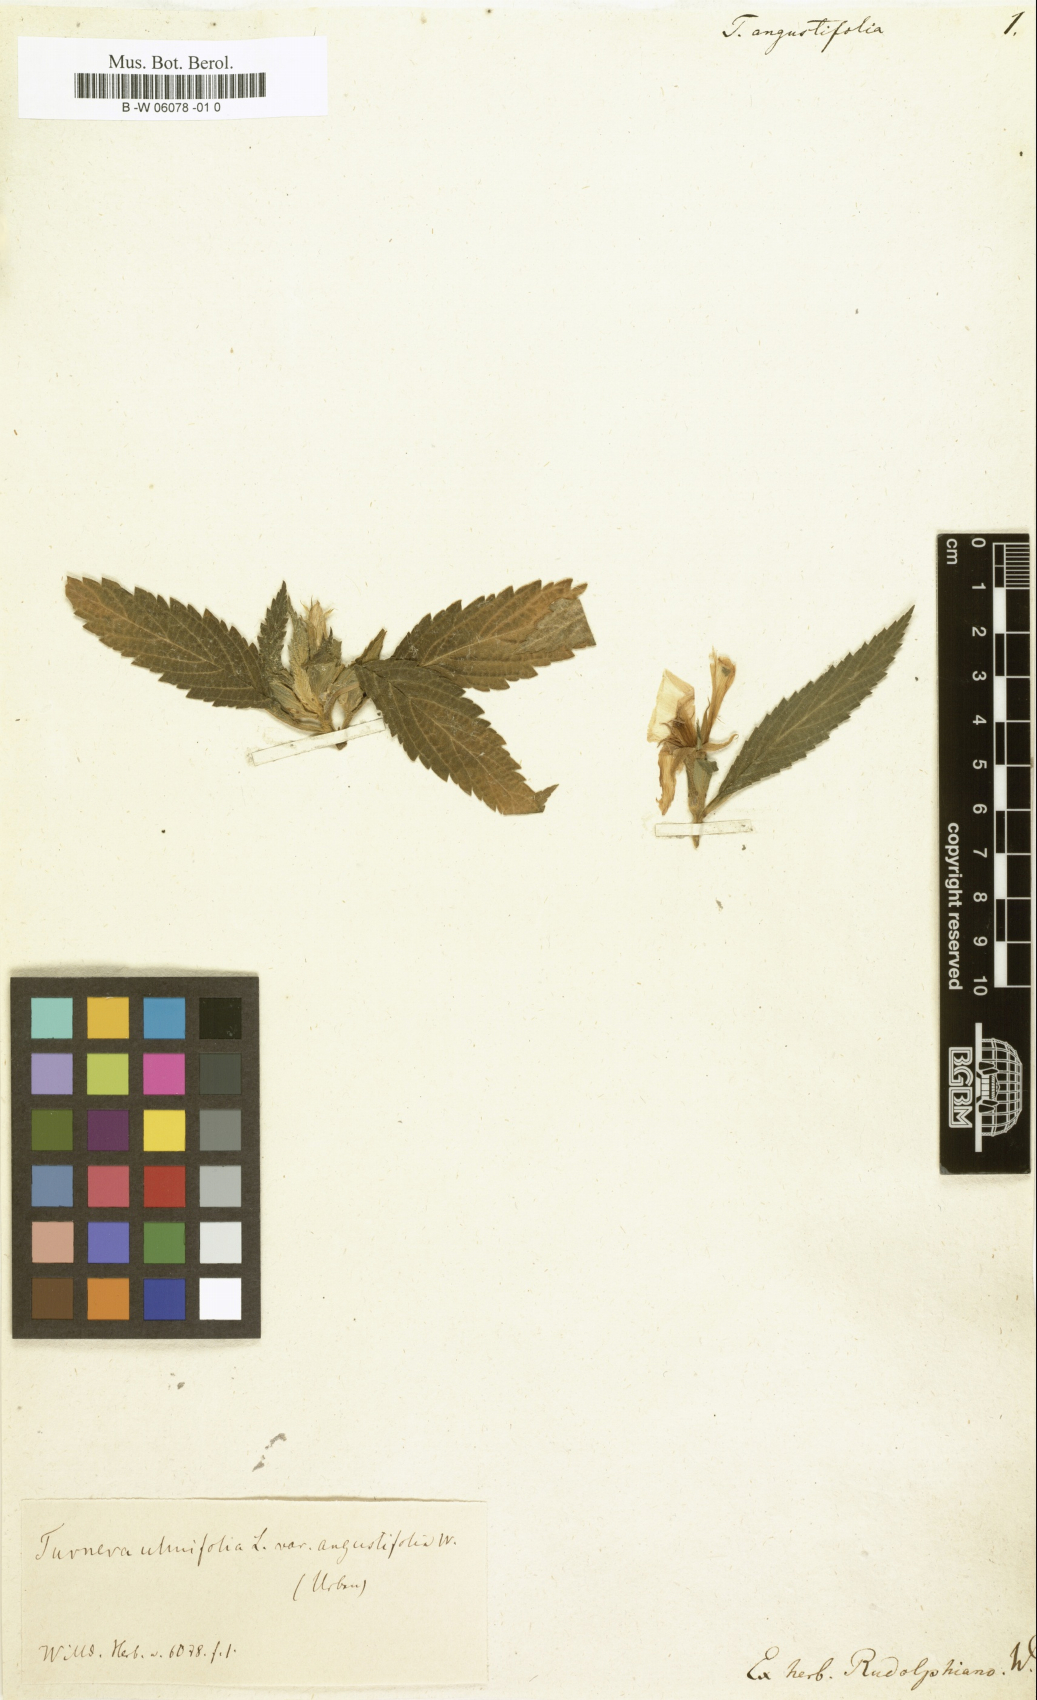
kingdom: Plantae
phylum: Tracheophyta
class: Magnoliopsida
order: Malpighiales
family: Turneraceae
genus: Turnera
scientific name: Turnera ulmifolia
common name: Ramgoat dashalong
